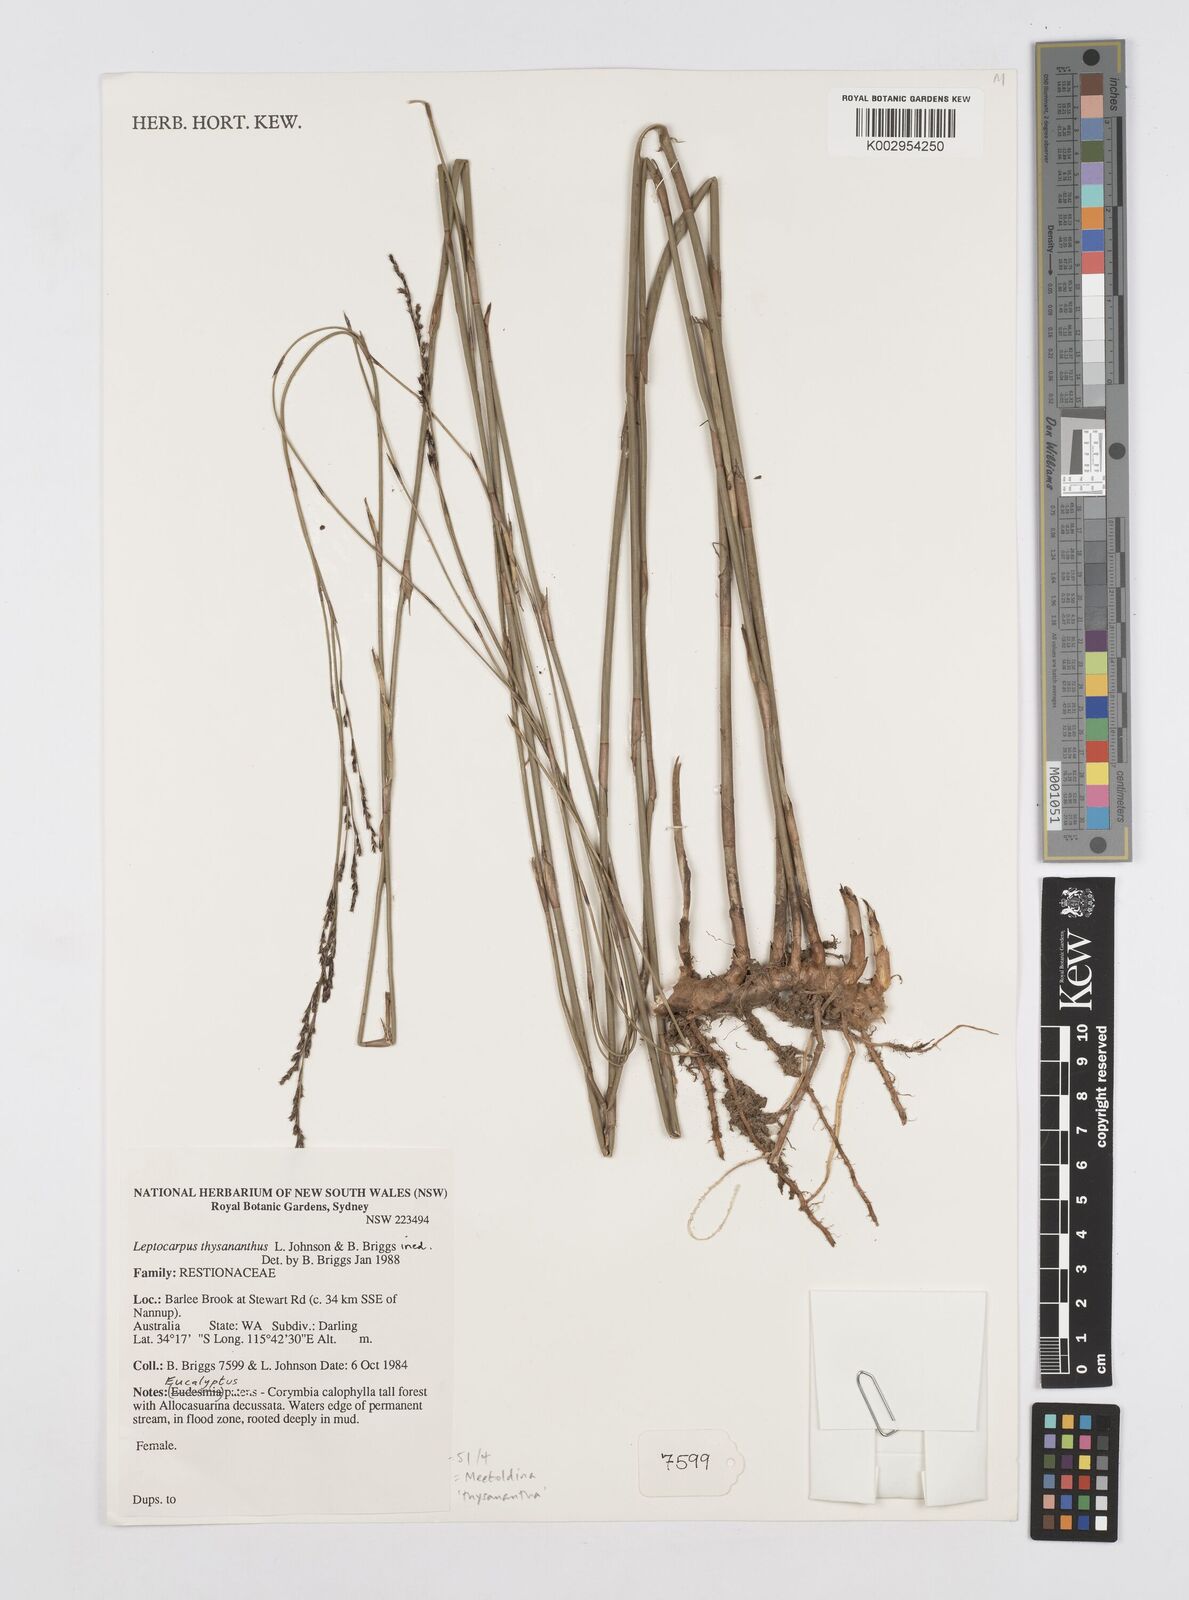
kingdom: Plantae
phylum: Tracheophyta
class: Liliopsida
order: Poales
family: Restionaceae
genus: Leptocarpus
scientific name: Leptocarpus thysananthus
